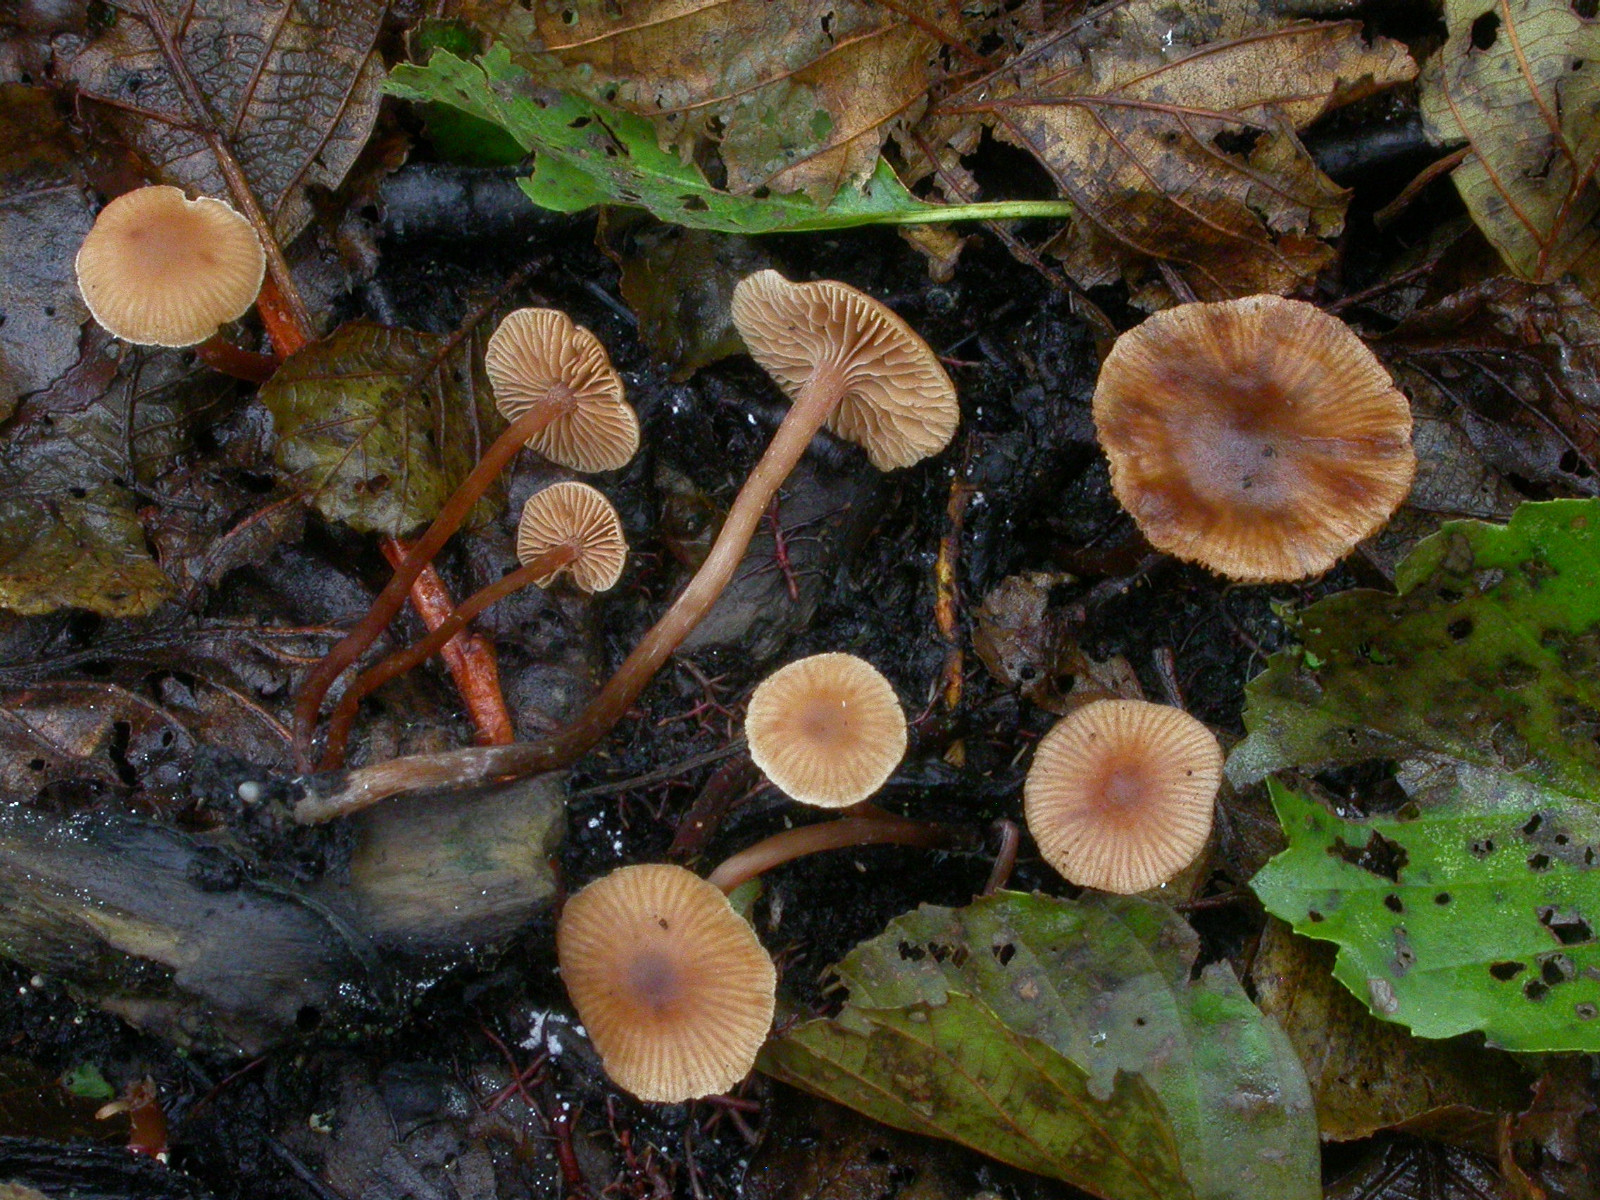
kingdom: Fungi
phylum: Basidiomycota
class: Agaricomycetes
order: Agaricales
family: Hymenogastraceae
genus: Naucoria
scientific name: Naucoria scolecina
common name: mørk elle-knaphat
